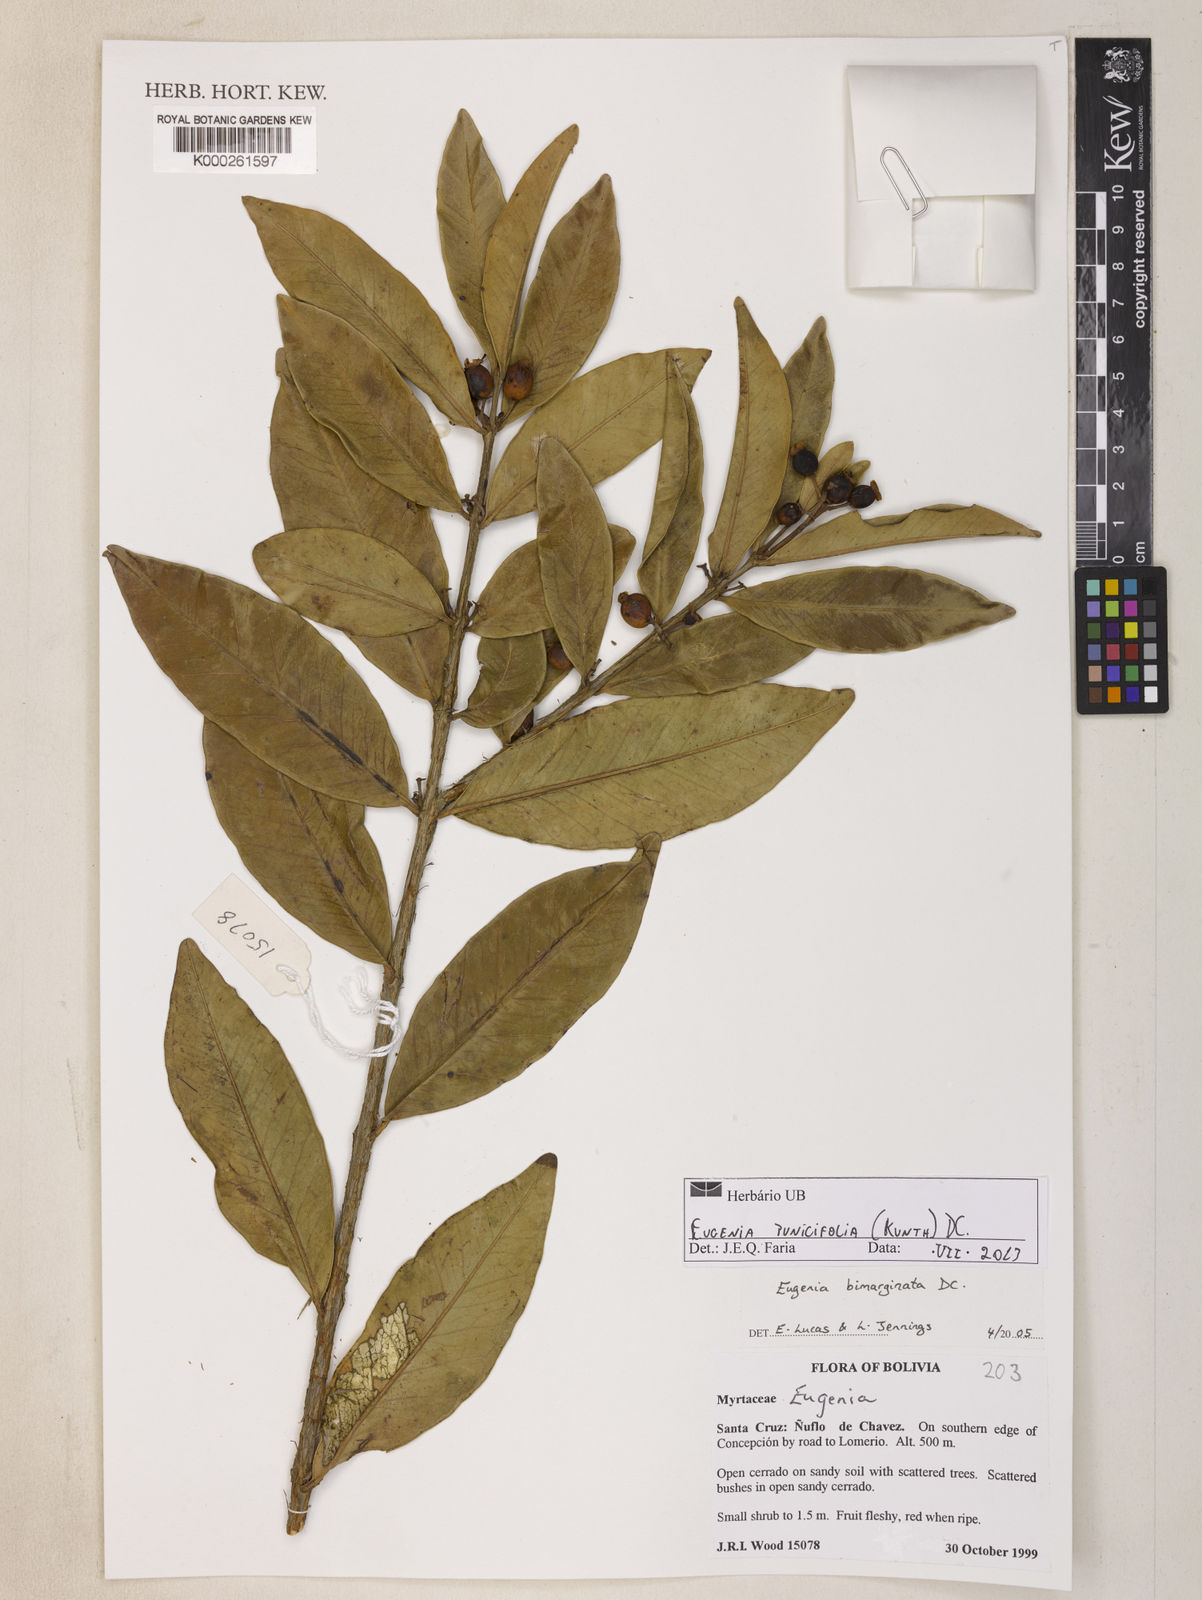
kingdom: Plantae
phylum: Tracheophyta
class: Magnoliopsida
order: Myrtales
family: Myrtaceae
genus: Eugenia
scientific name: Eugenia punicifolia
